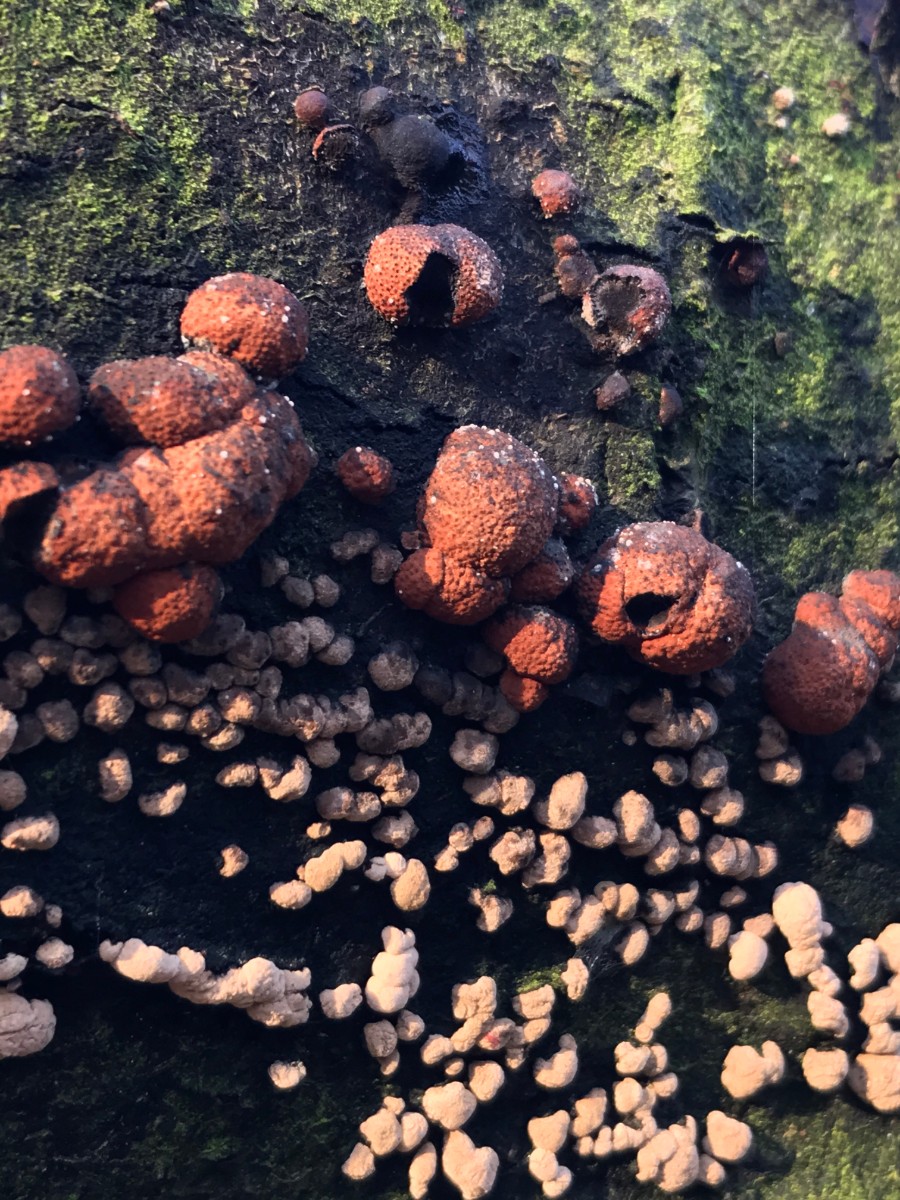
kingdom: Fungi
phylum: Ascomycota
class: Sordariomycetes
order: Xylariales
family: Hypoxylaceae
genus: Hypoxylon
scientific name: Hypoxylon fragiforme
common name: kuljordbær
